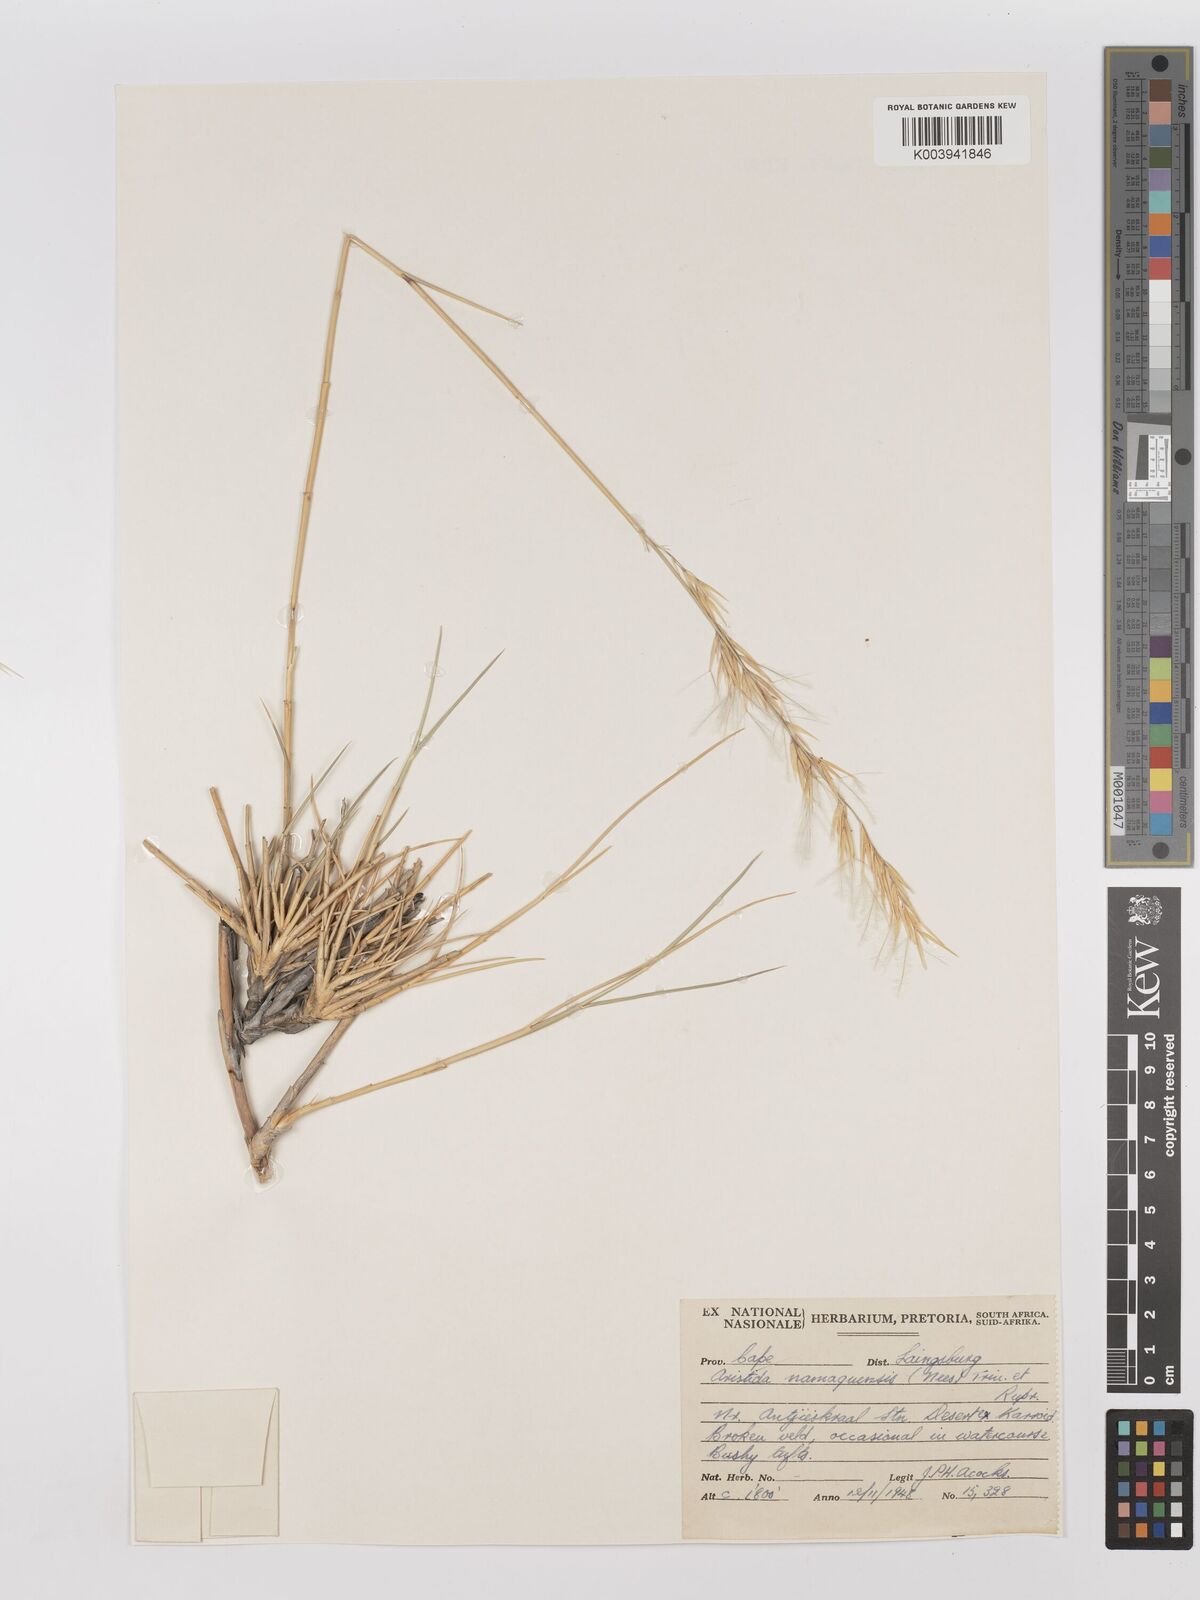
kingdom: Plantae
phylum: Tracheophyta
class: Liliopsida
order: Poales
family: Poaceae
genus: Stipagrostis
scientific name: Stipagrostis namaquensis
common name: River bushman grass
